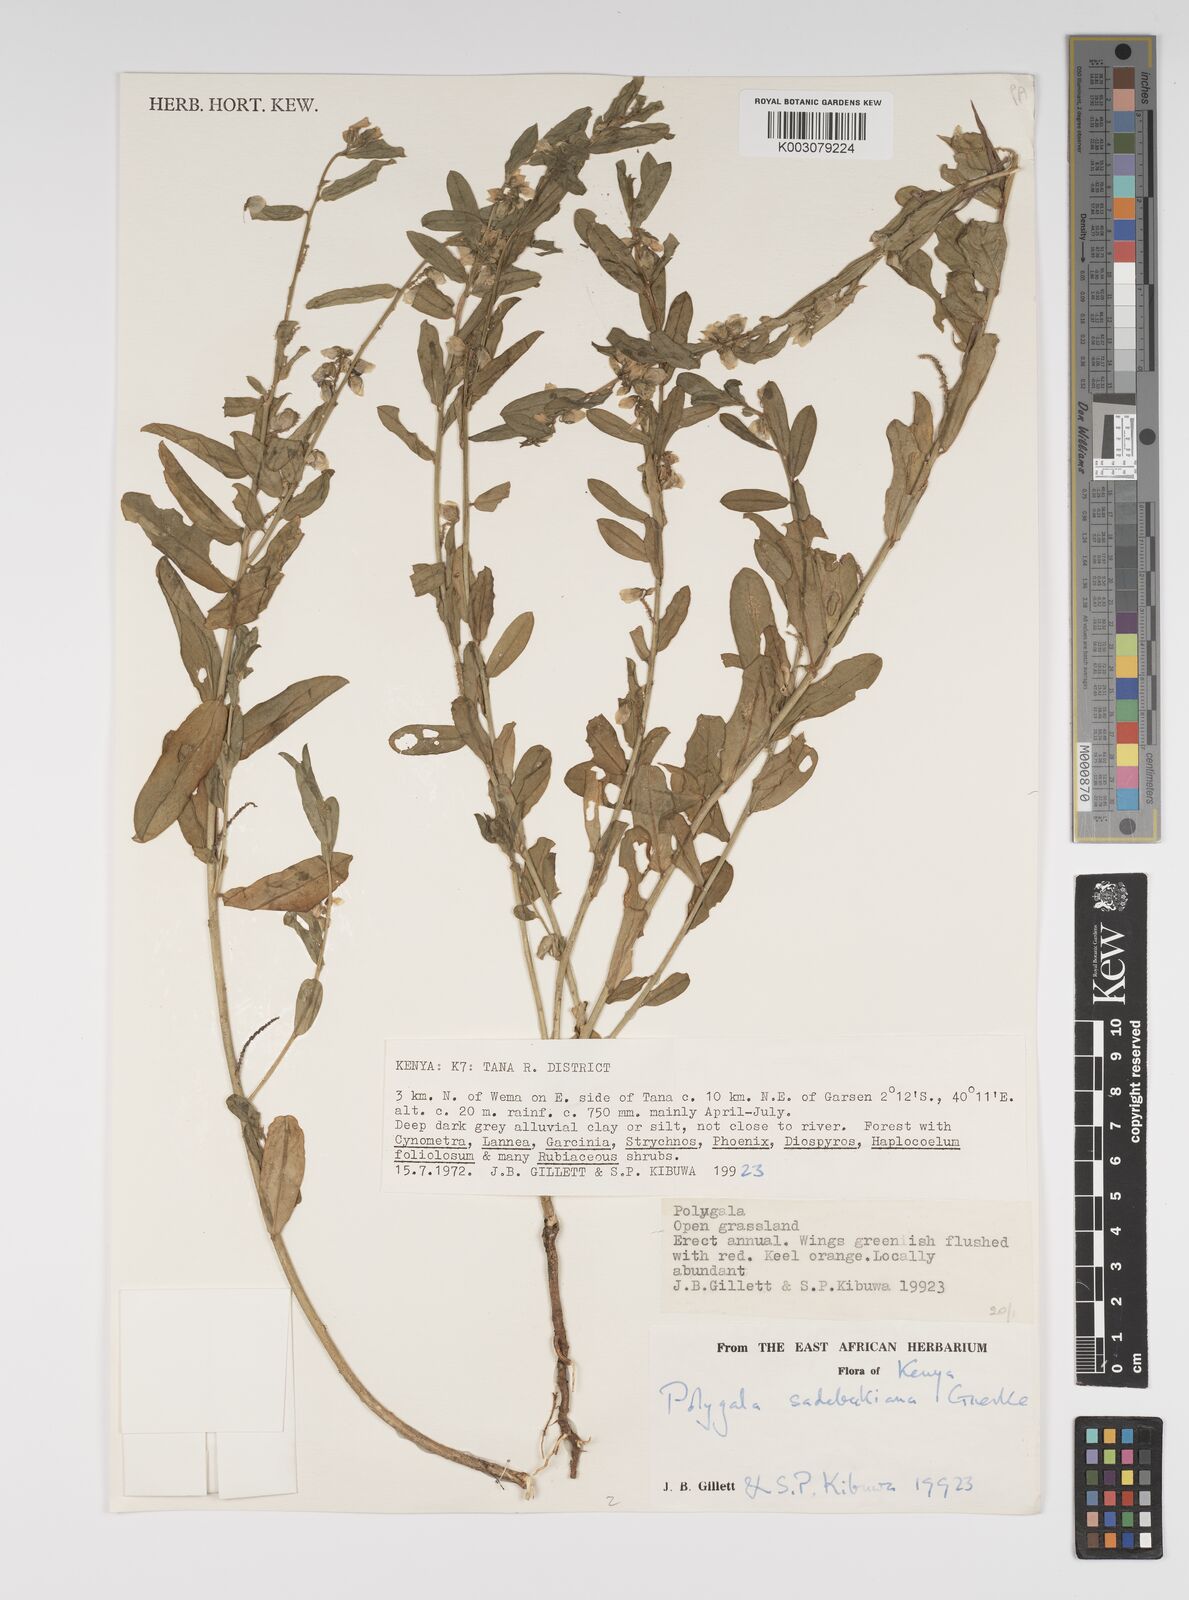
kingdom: Plantae
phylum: Tracheophyta
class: Magnoliopsida
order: Fabales
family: Polygalaceae
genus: Polygala
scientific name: Polygala sadebeckiana
